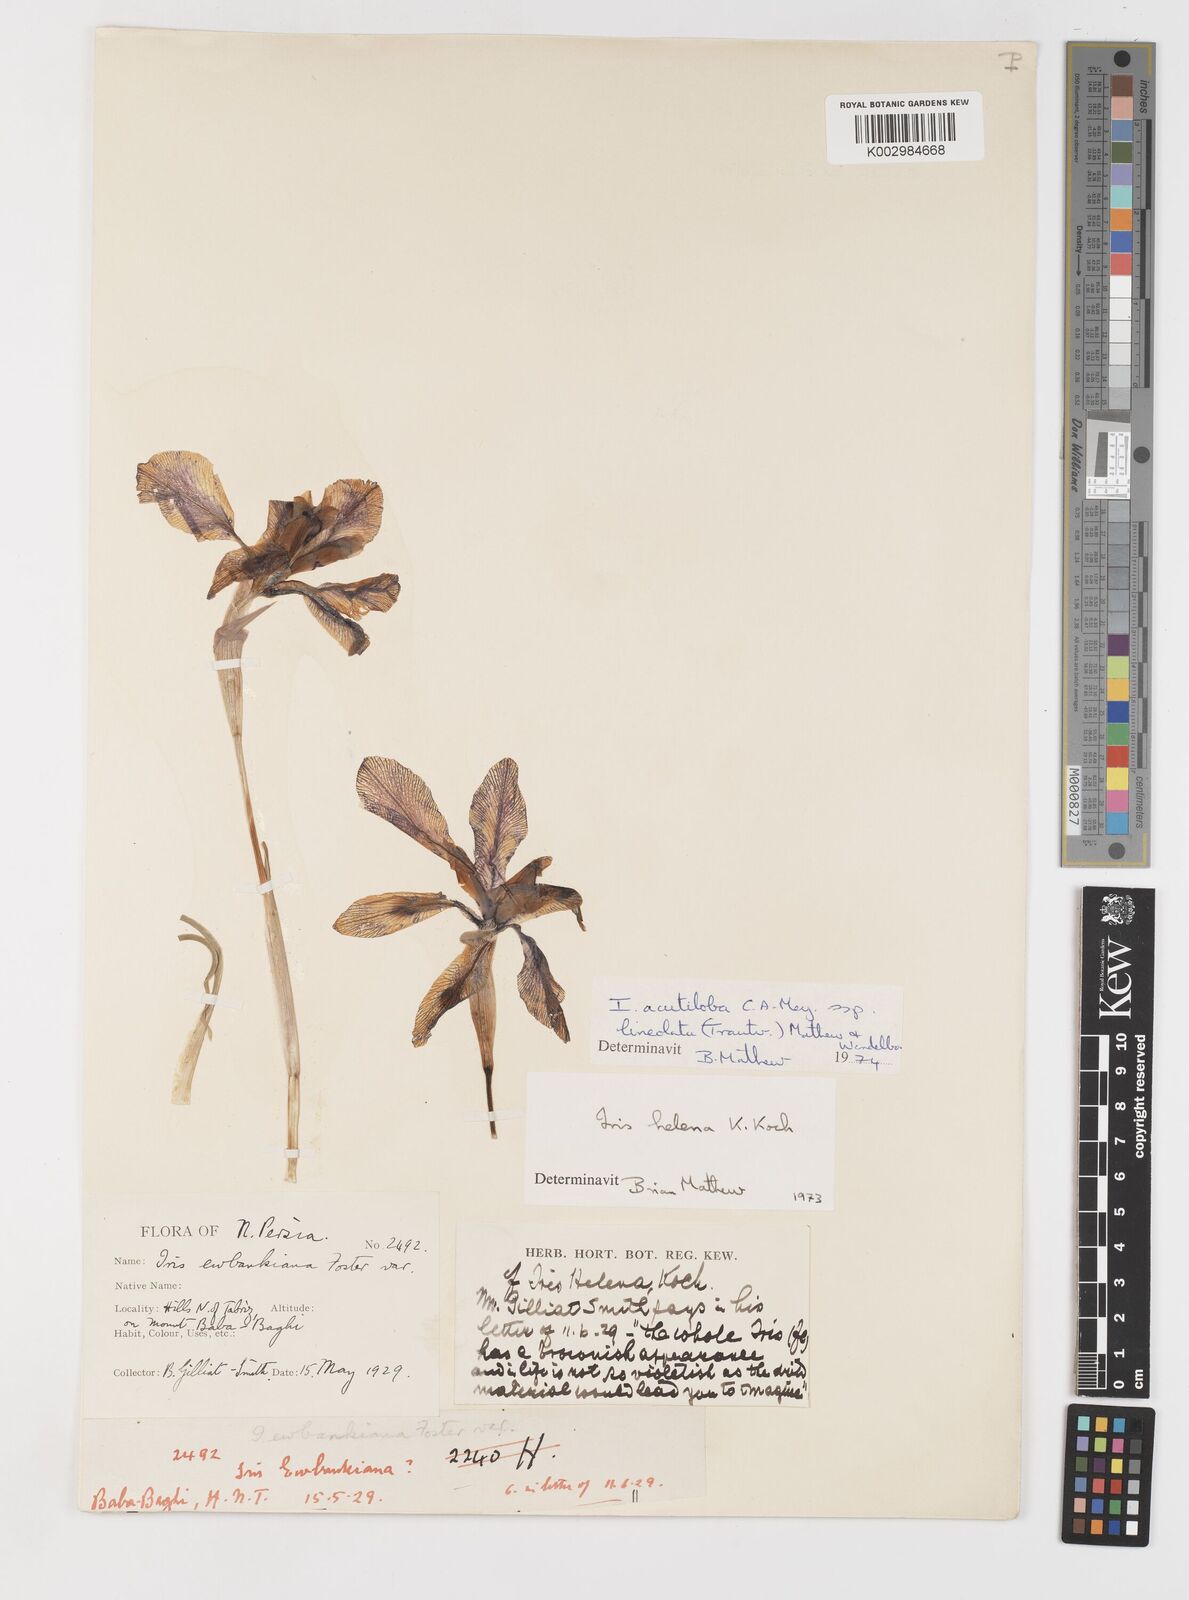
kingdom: Plantae
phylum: Tracheophyta
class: Liliopsida
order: Asparagales
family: Iridaceae
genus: Iris
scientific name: Iris acutiloba
